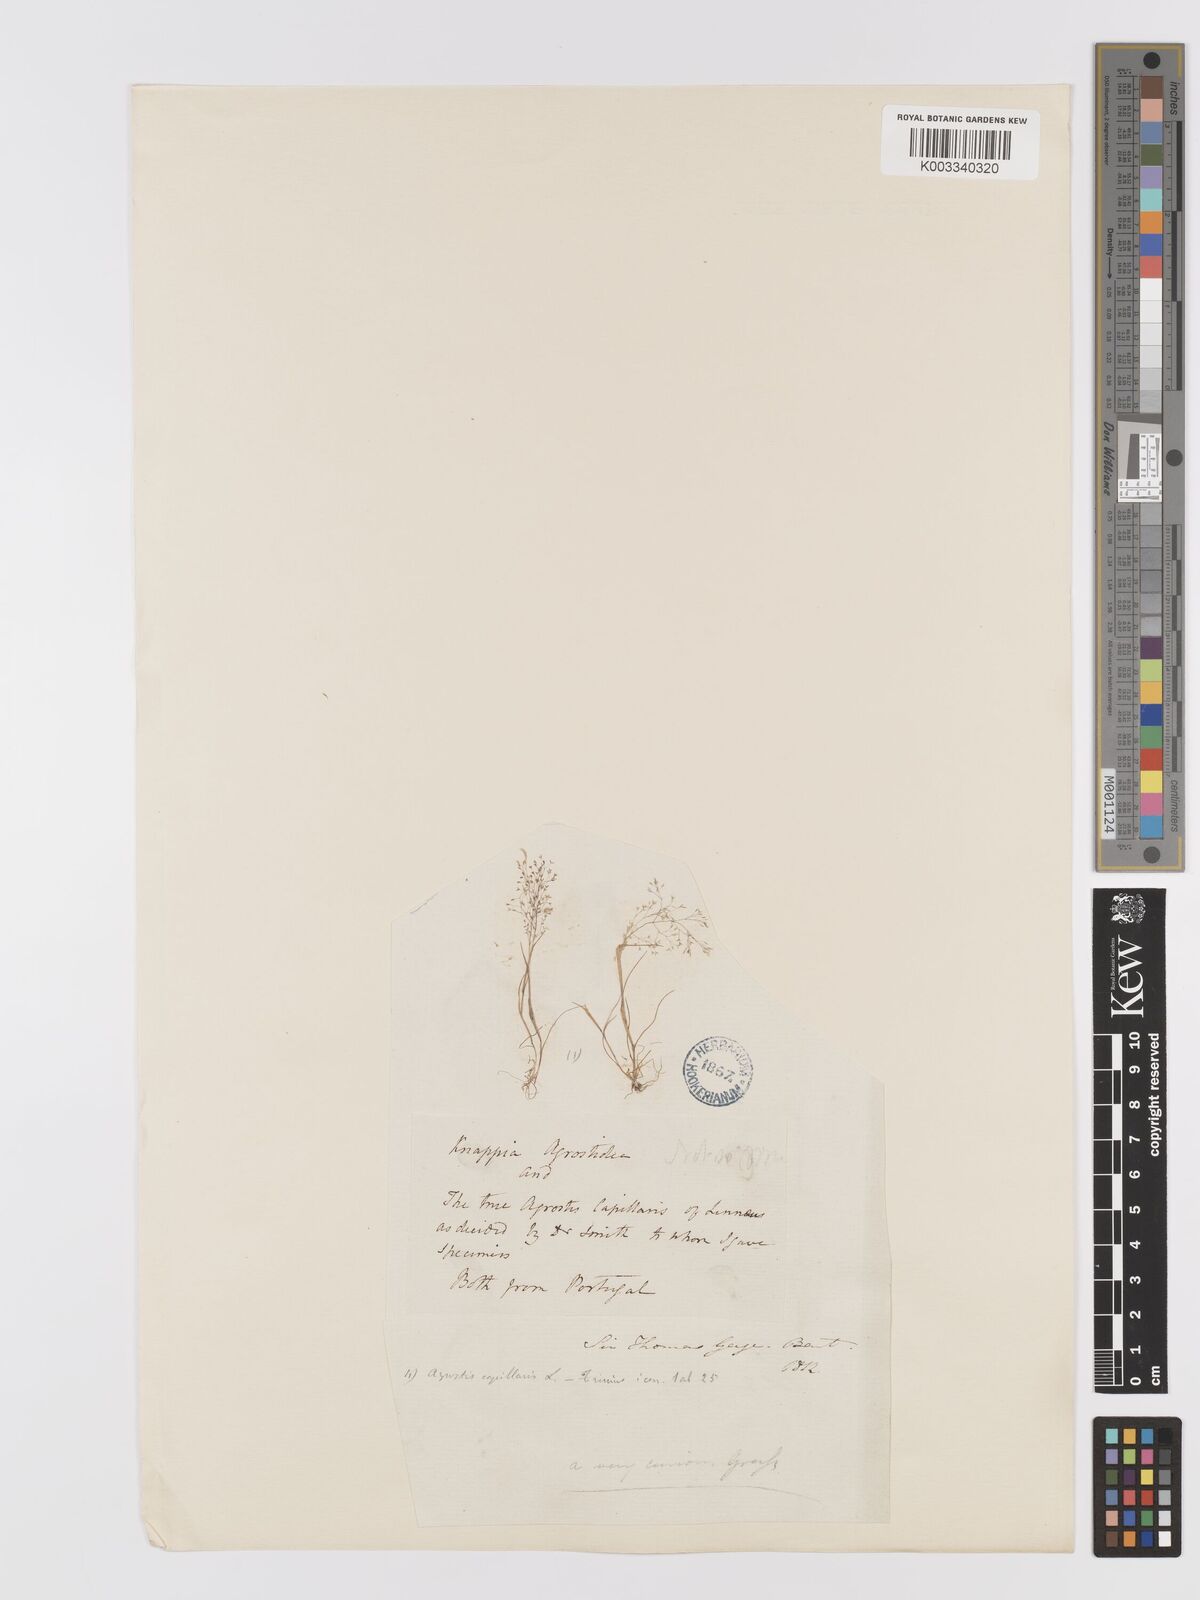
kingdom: Plantae
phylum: Tracheophyta
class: Liliopsida
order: Poales
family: Poaceae
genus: Agrostis
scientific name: Agrostis tenerrima
